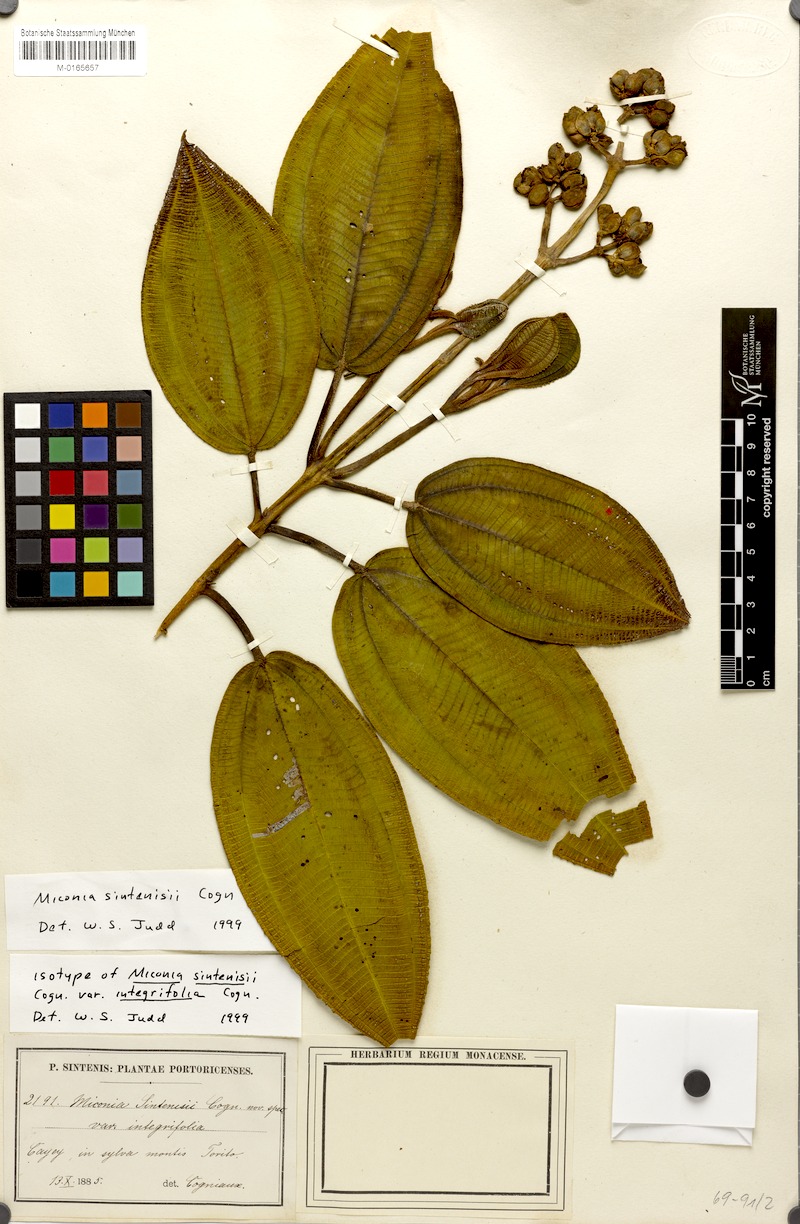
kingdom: Plantae
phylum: Tracheophyta
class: Magnoliopsida
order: Myrtales
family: Melastomataceae
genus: Miconia
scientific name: Miconia sintenisii
